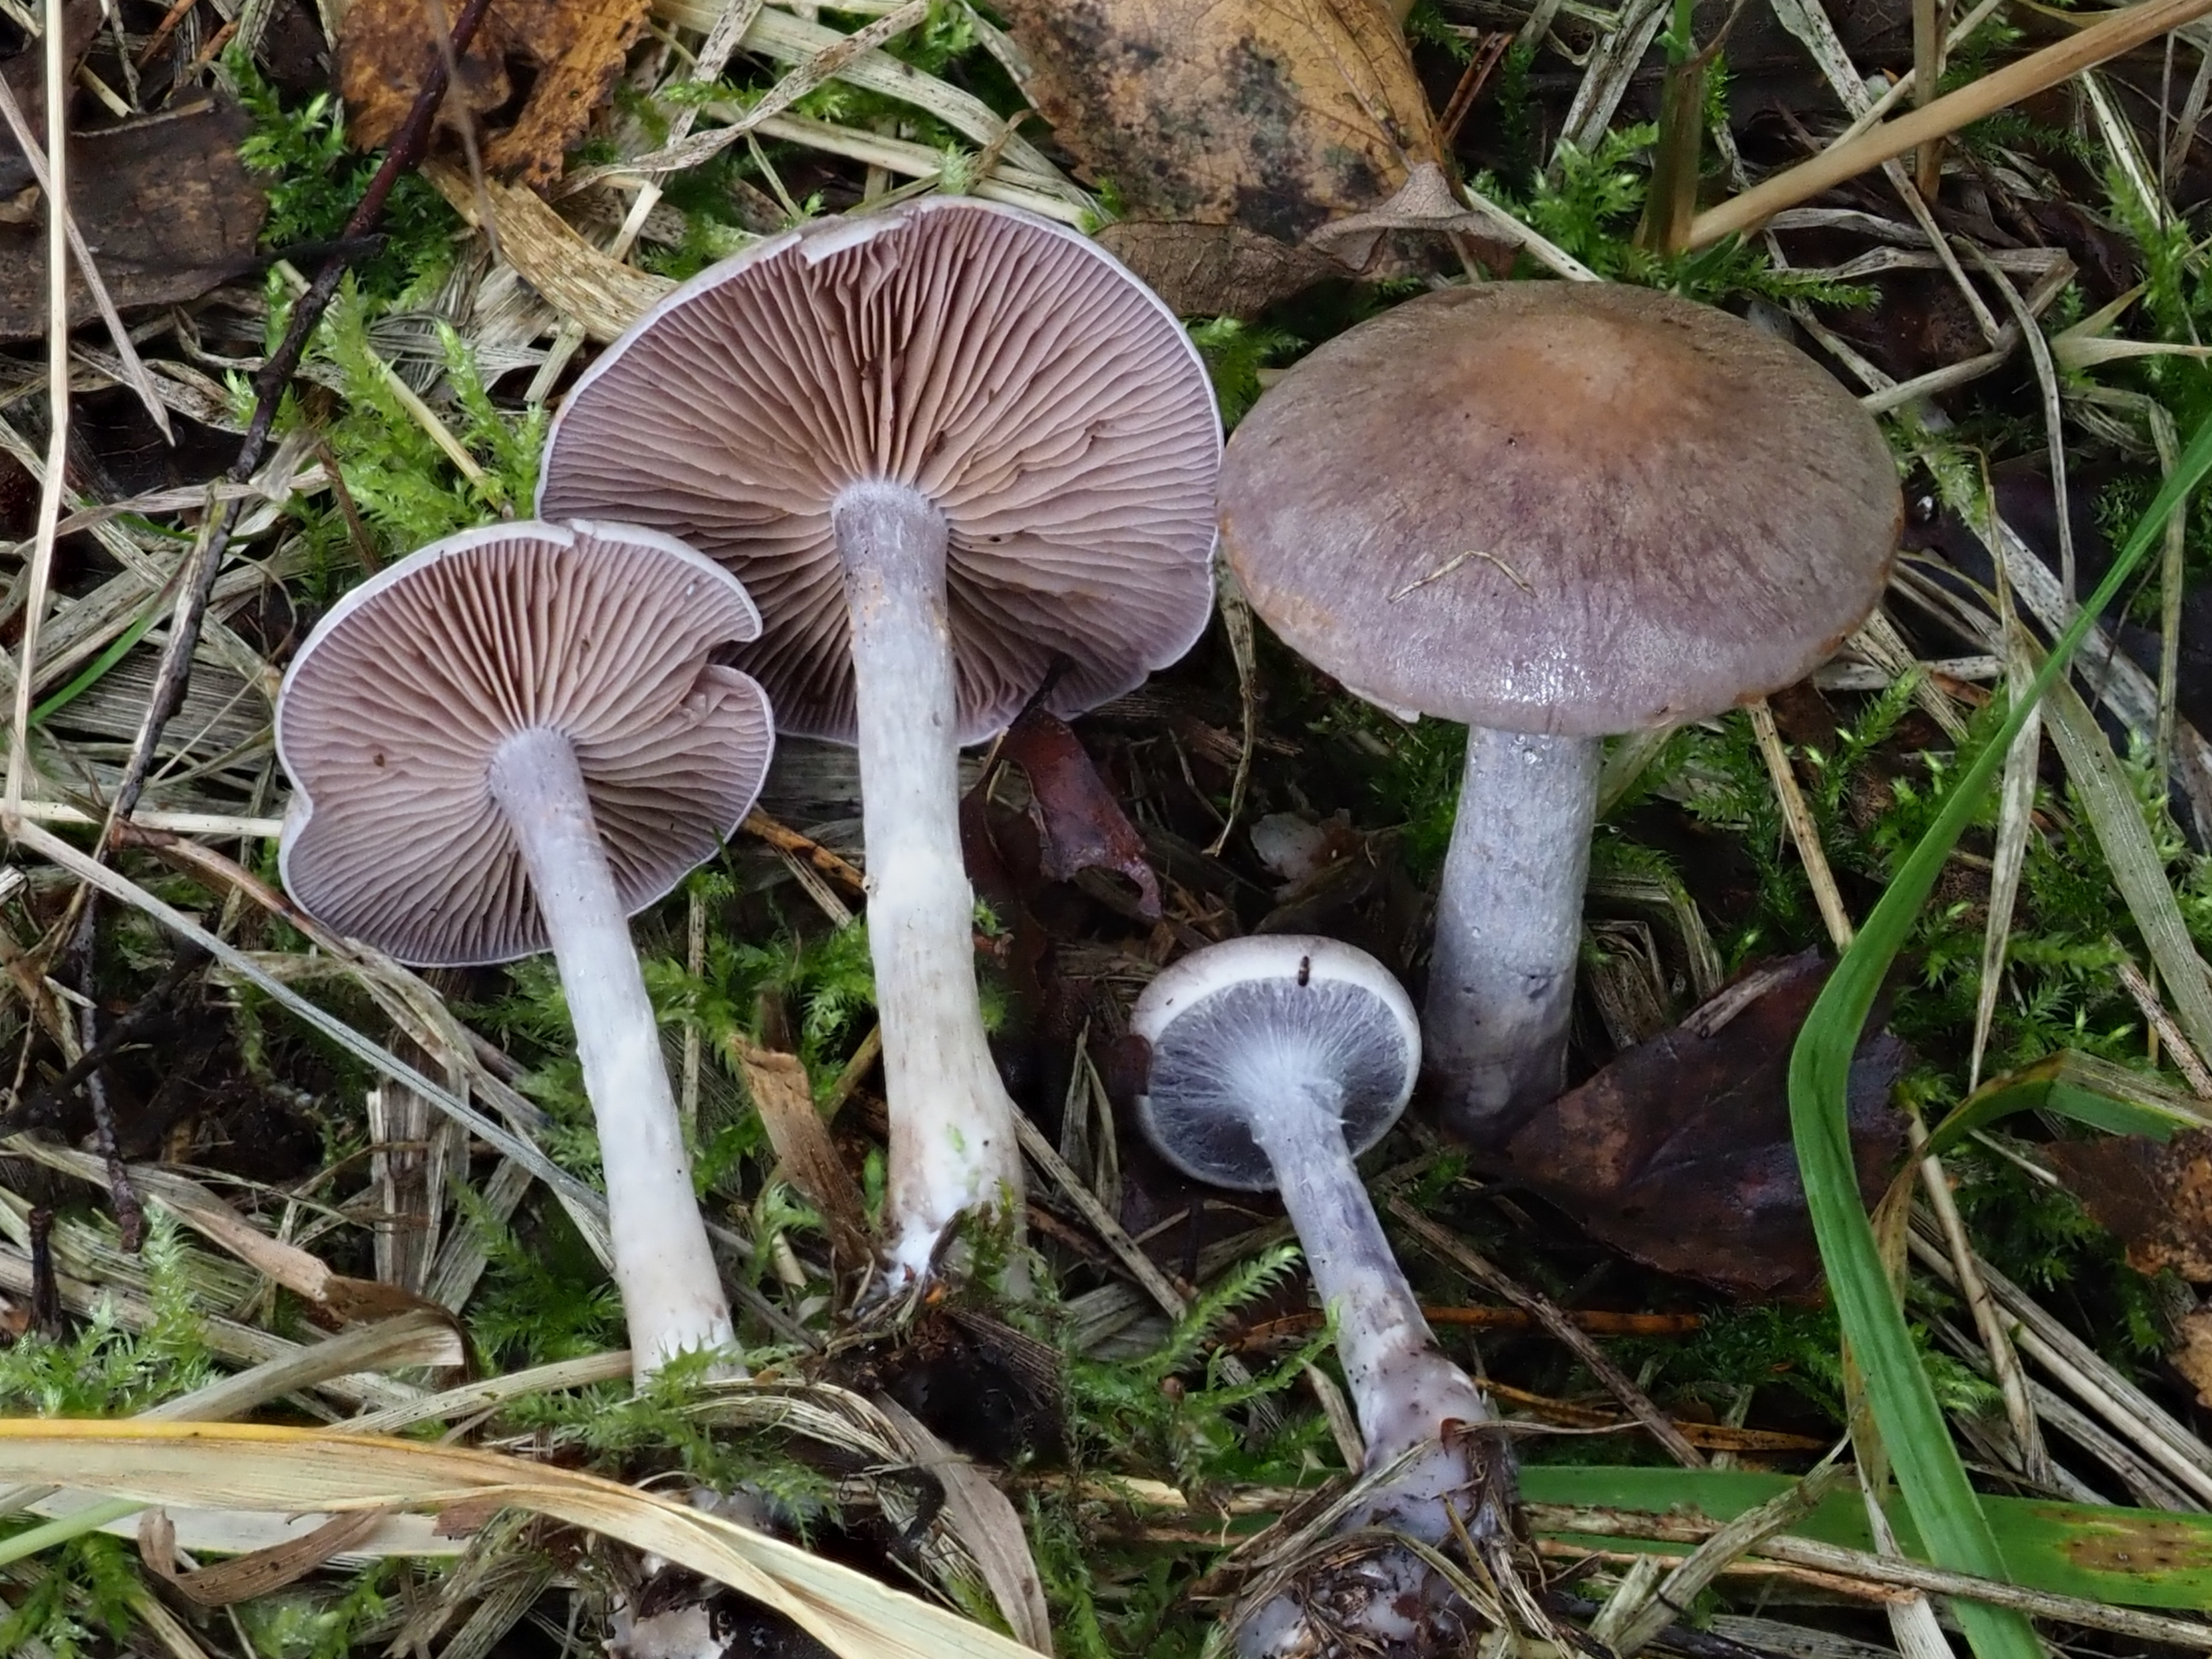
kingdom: Fungi
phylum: Basidiomycota
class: Agaricomycetes
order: Agaricales
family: Cortinariaceae
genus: Cortinarius
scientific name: Cortinarius lucorum
